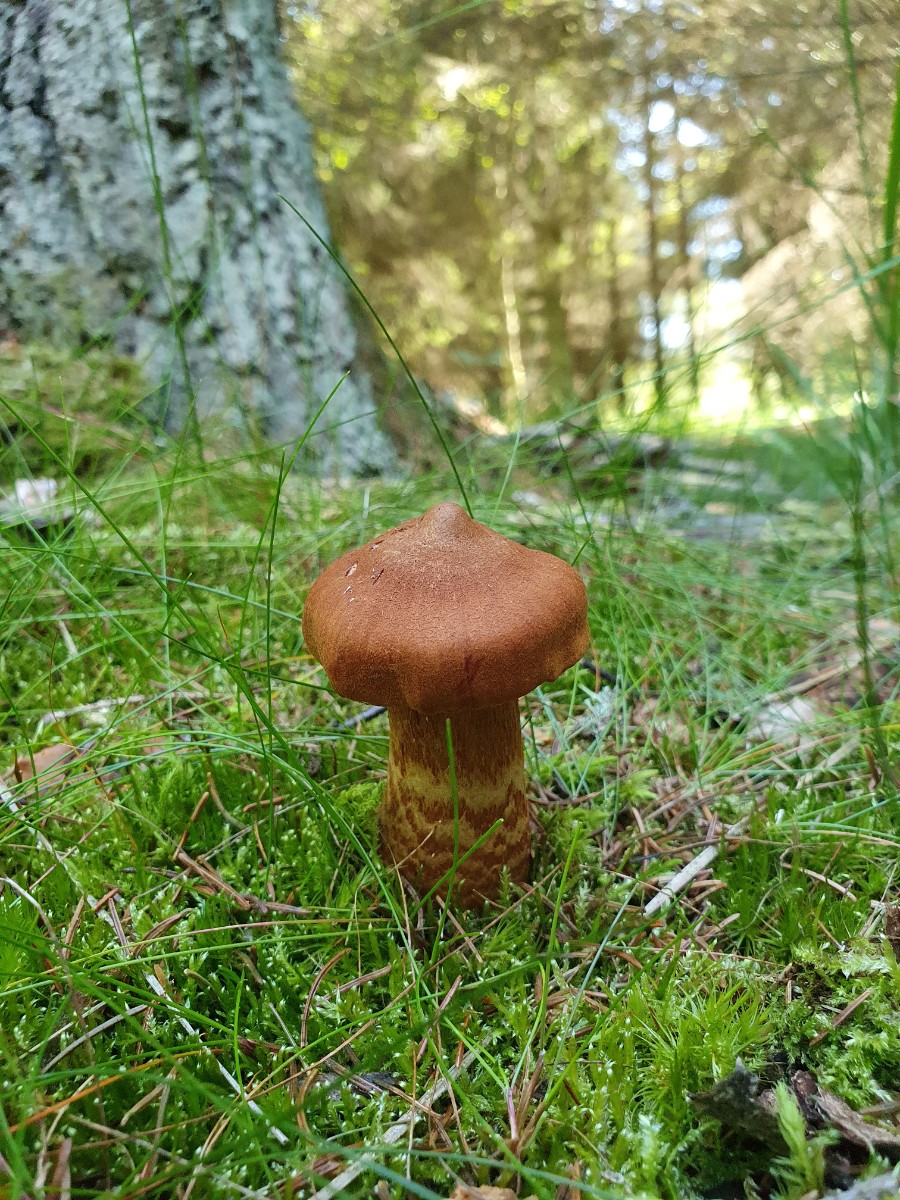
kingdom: Fungi
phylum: Basidiomycota
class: Agaricomycetes
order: Agaricales
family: Cortinariaceae
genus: Cortinarius
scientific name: Cortinarius rubellus
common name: puklet gift-slørhat
